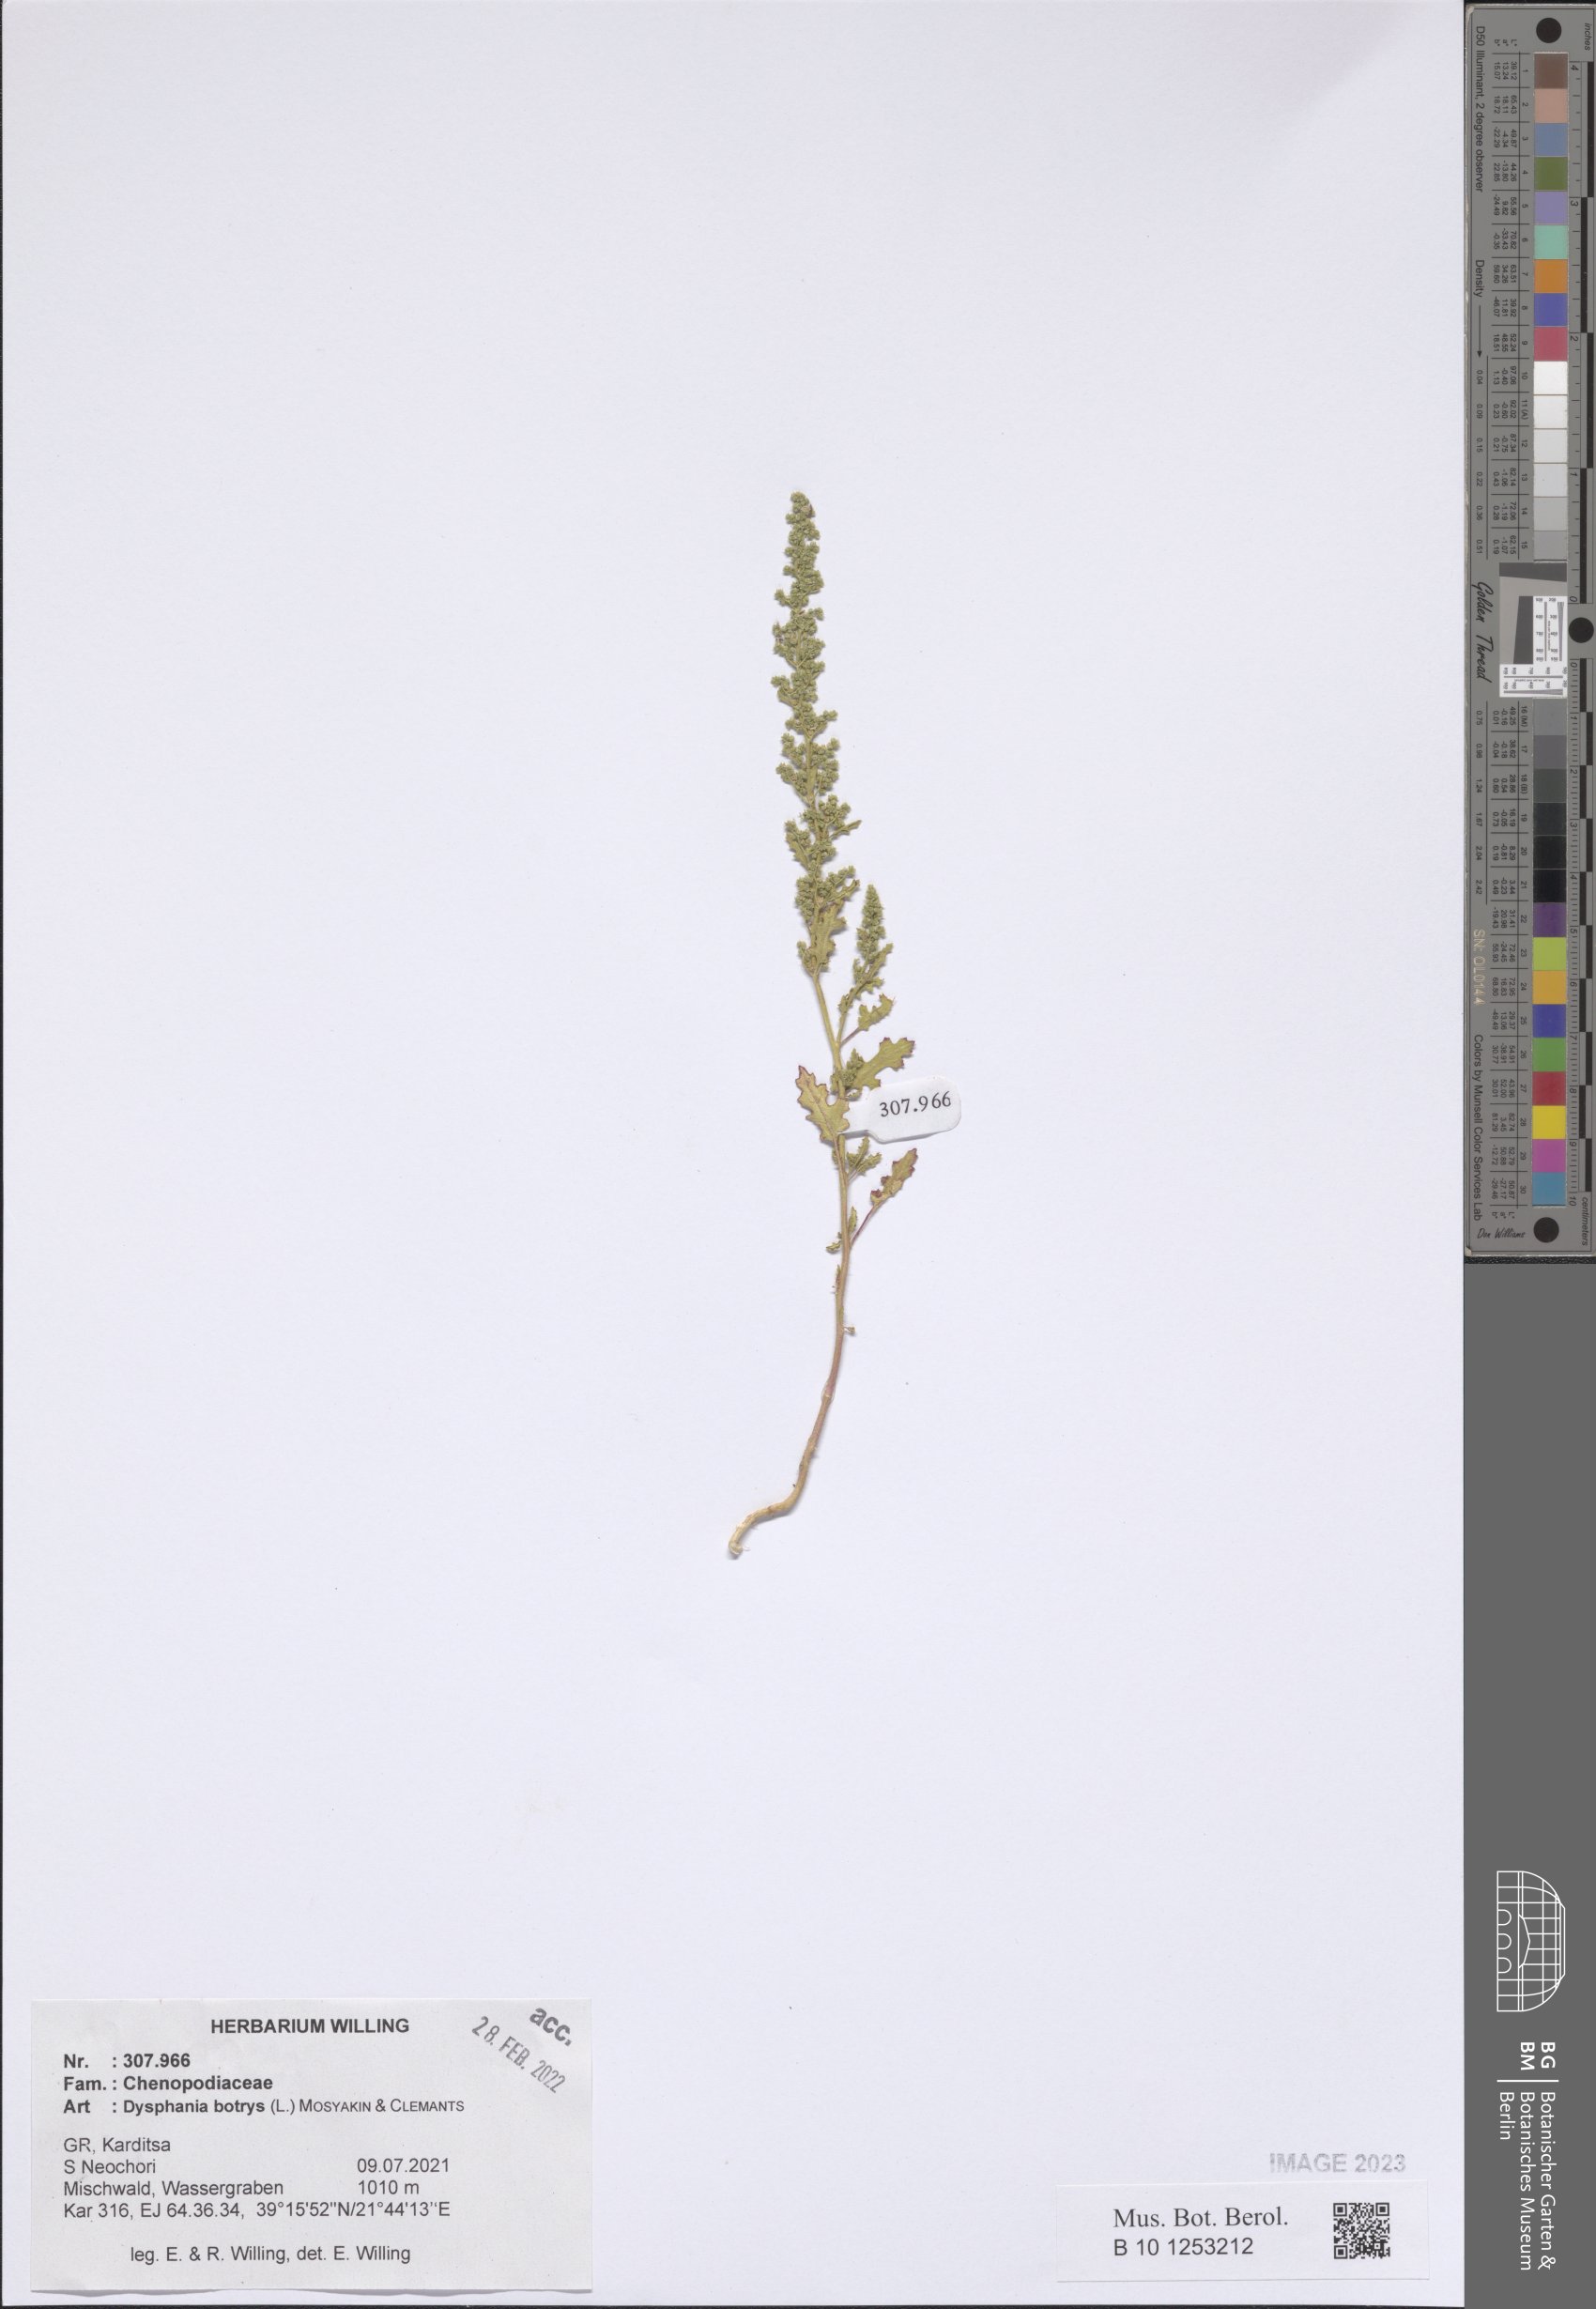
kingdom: Plantae
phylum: Tracheophyta
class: Magnoliopsida
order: Caryophyllales
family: Amaranthaceae
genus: Dysphania
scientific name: Dysphania botrys
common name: Feather-geranium
